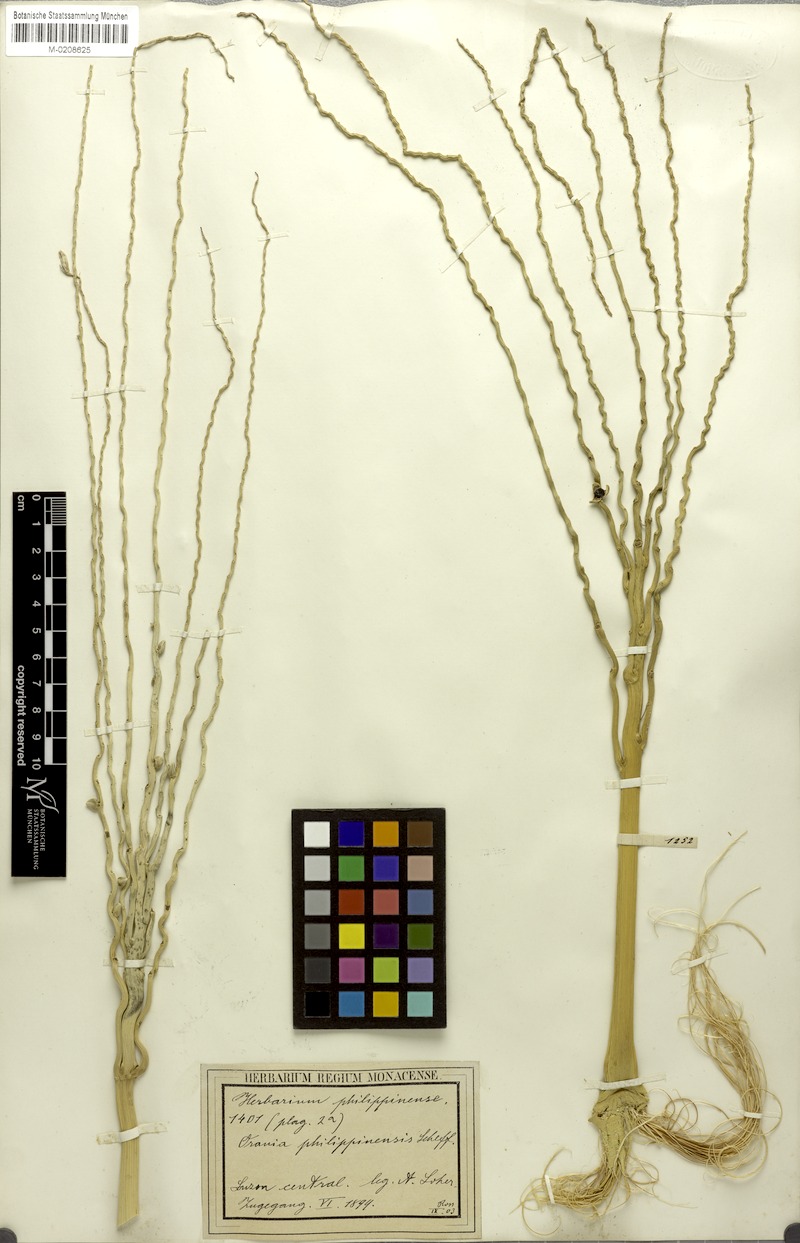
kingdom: Plantae
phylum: Tracheophyta
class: Liliopsida
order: Arecales
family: Arecaceae
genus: Orania
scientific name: Orania palindan
